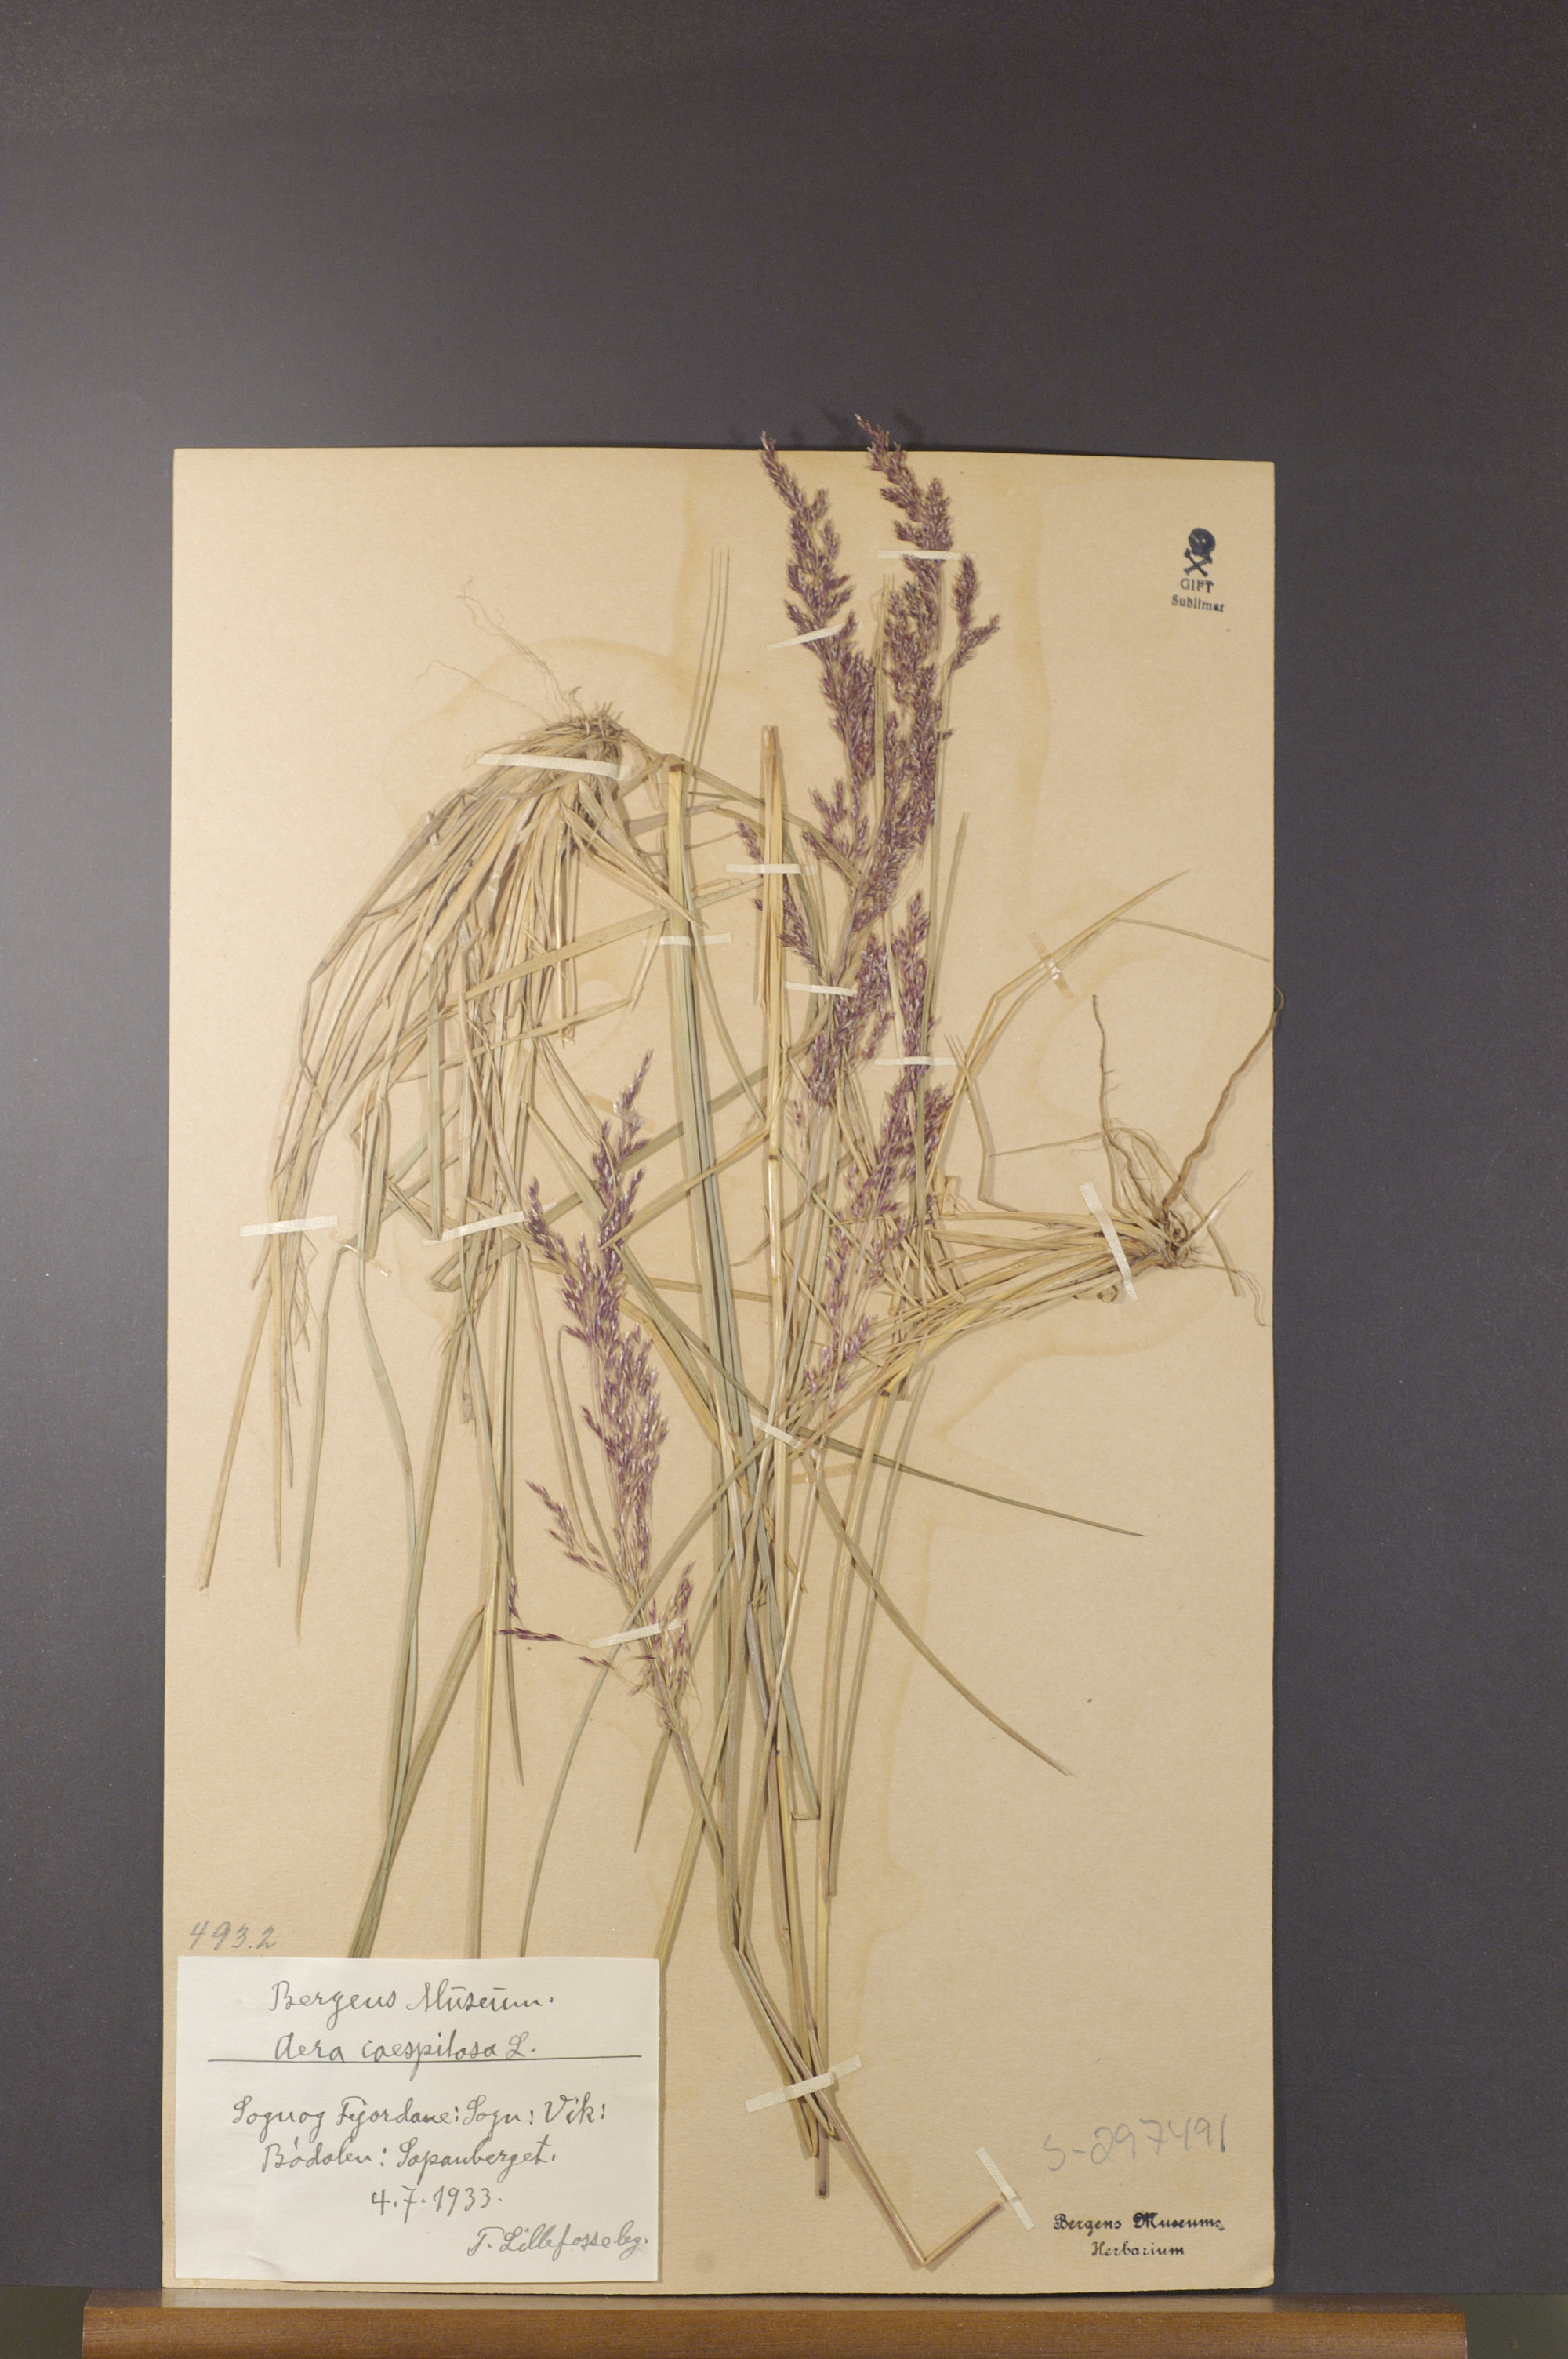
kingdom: Plantae
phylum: Tracheophyta
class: Liliopsida
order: Poales
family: Poaceae
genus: Deschampsia
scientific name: Deschampsia cespitosa
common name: Tufted hair-grass
